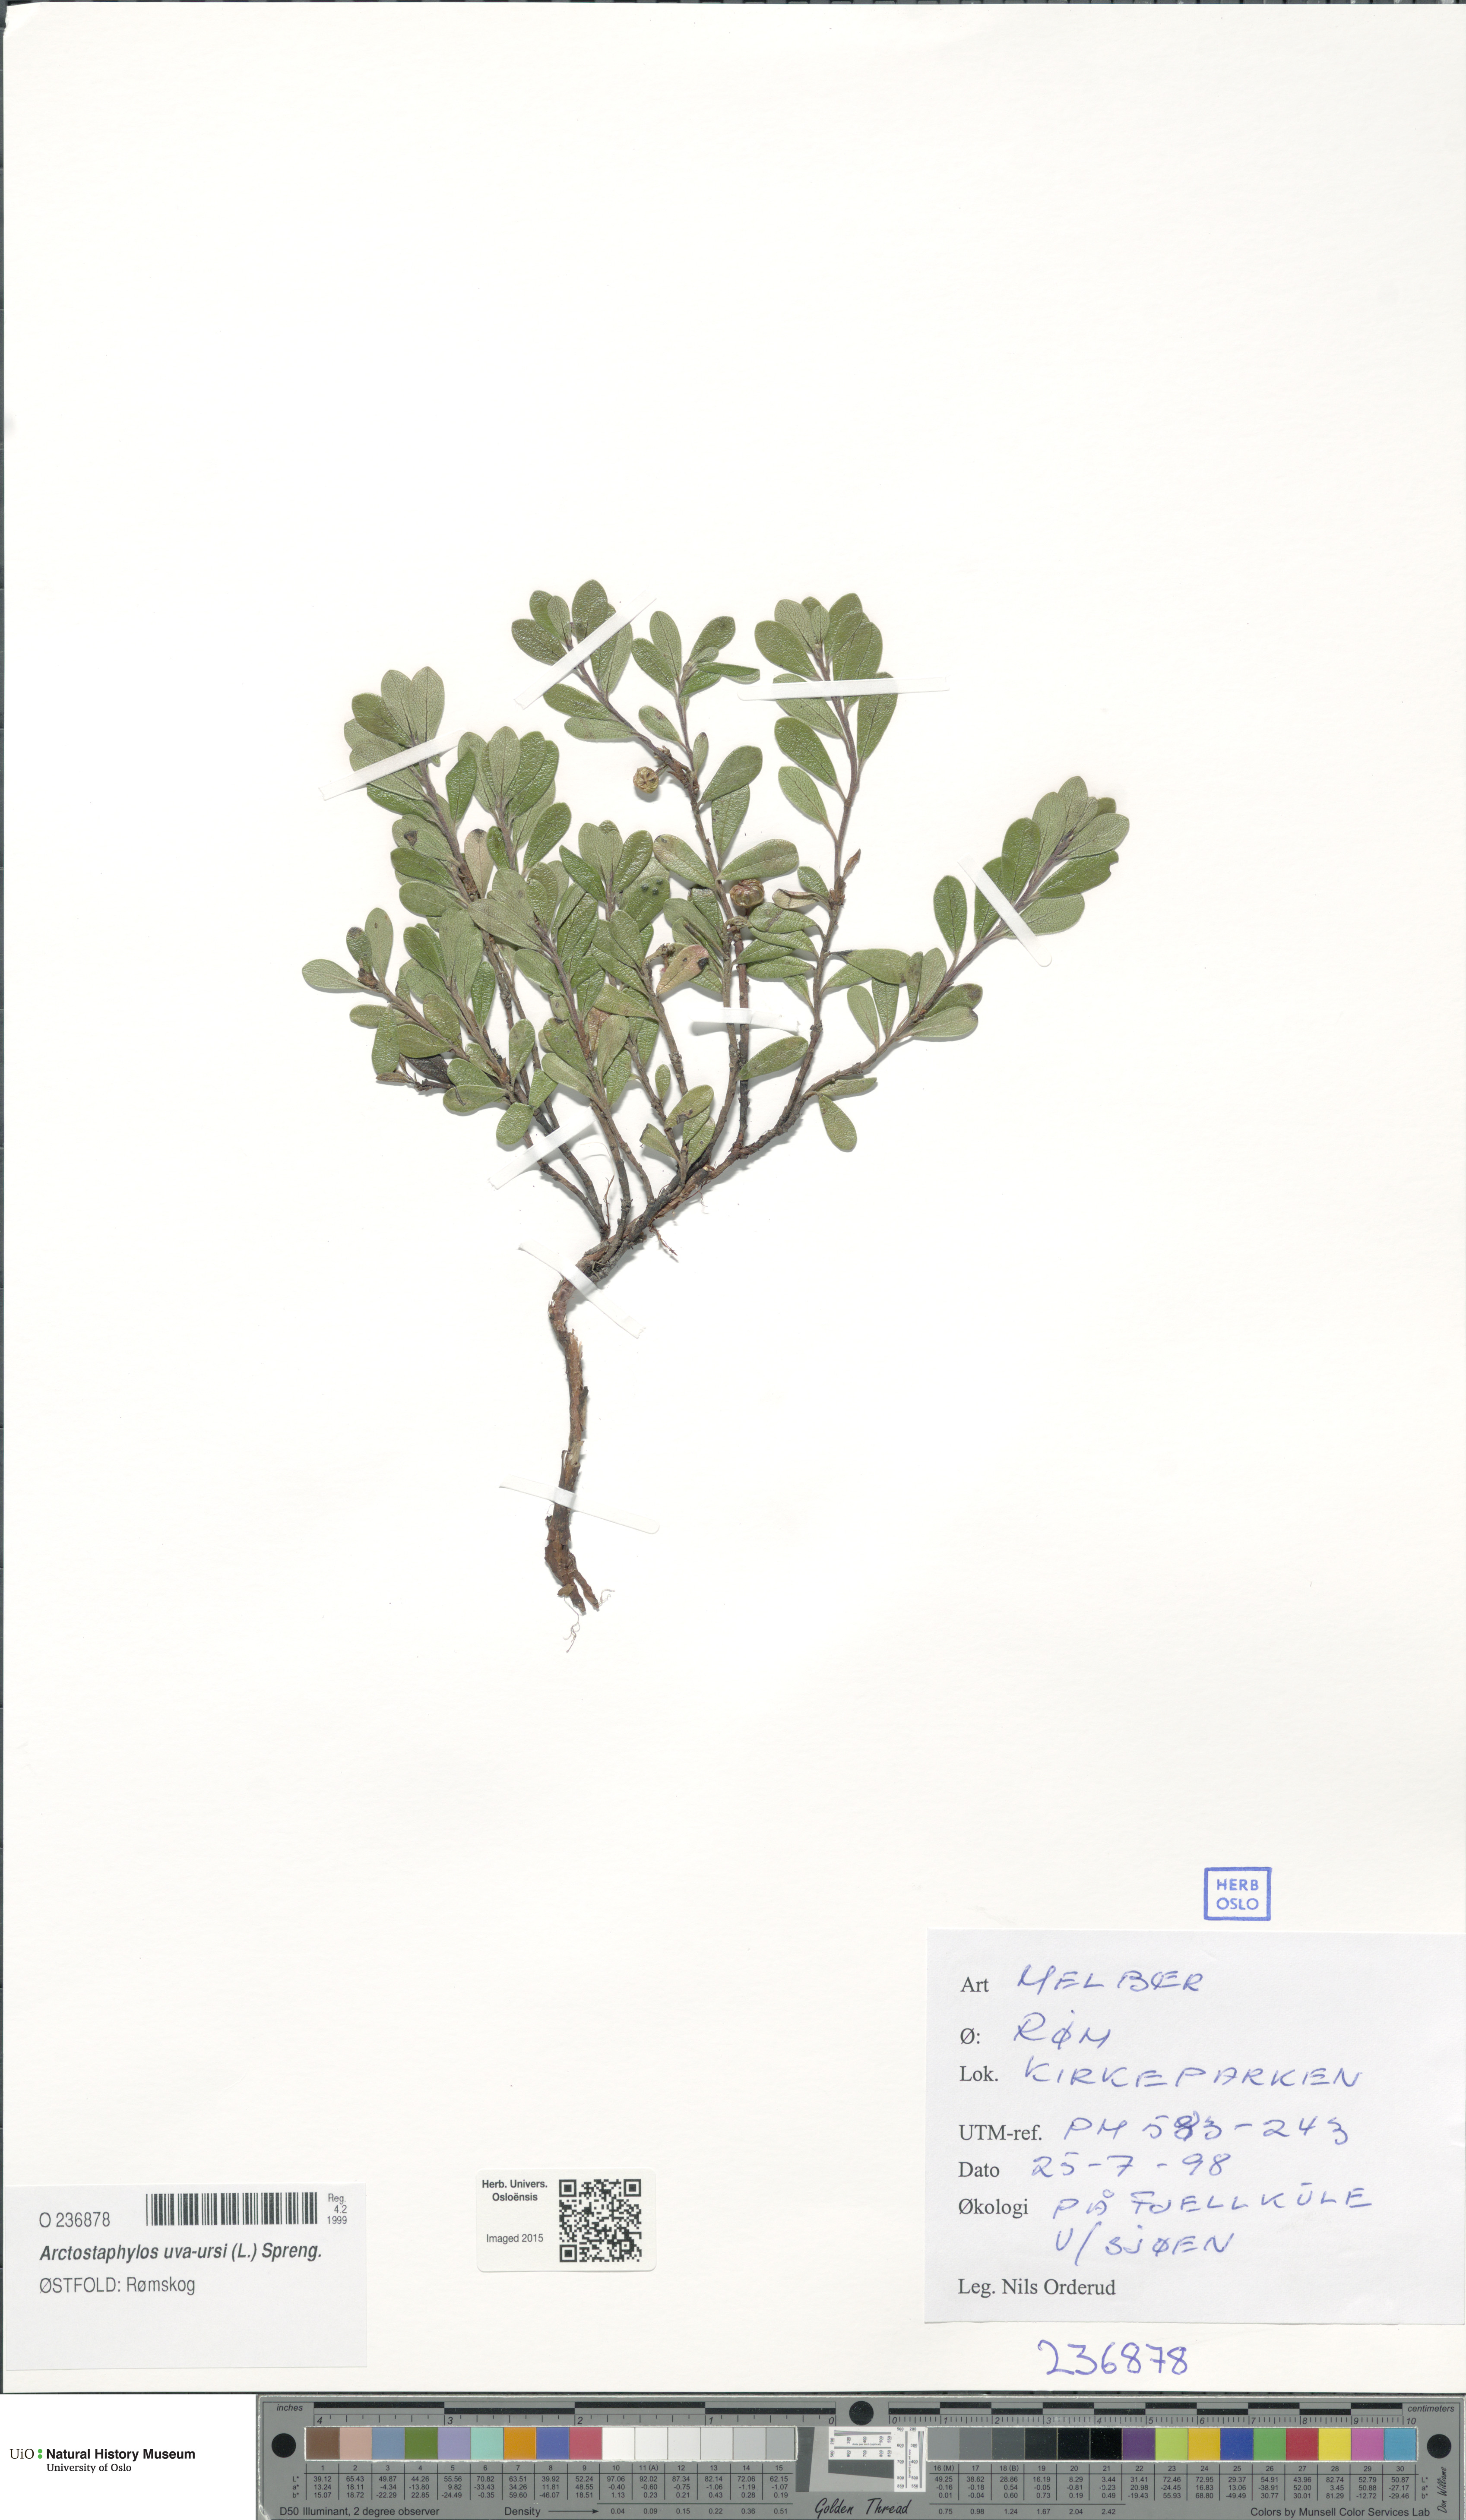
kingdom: Plantae
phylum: Tracheophyta
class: Magnoliopsida
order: Ericales
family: Ericaceae
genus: Arctostaphylos
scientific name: Arctostaphylos uva-ursi
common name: Bearberry
